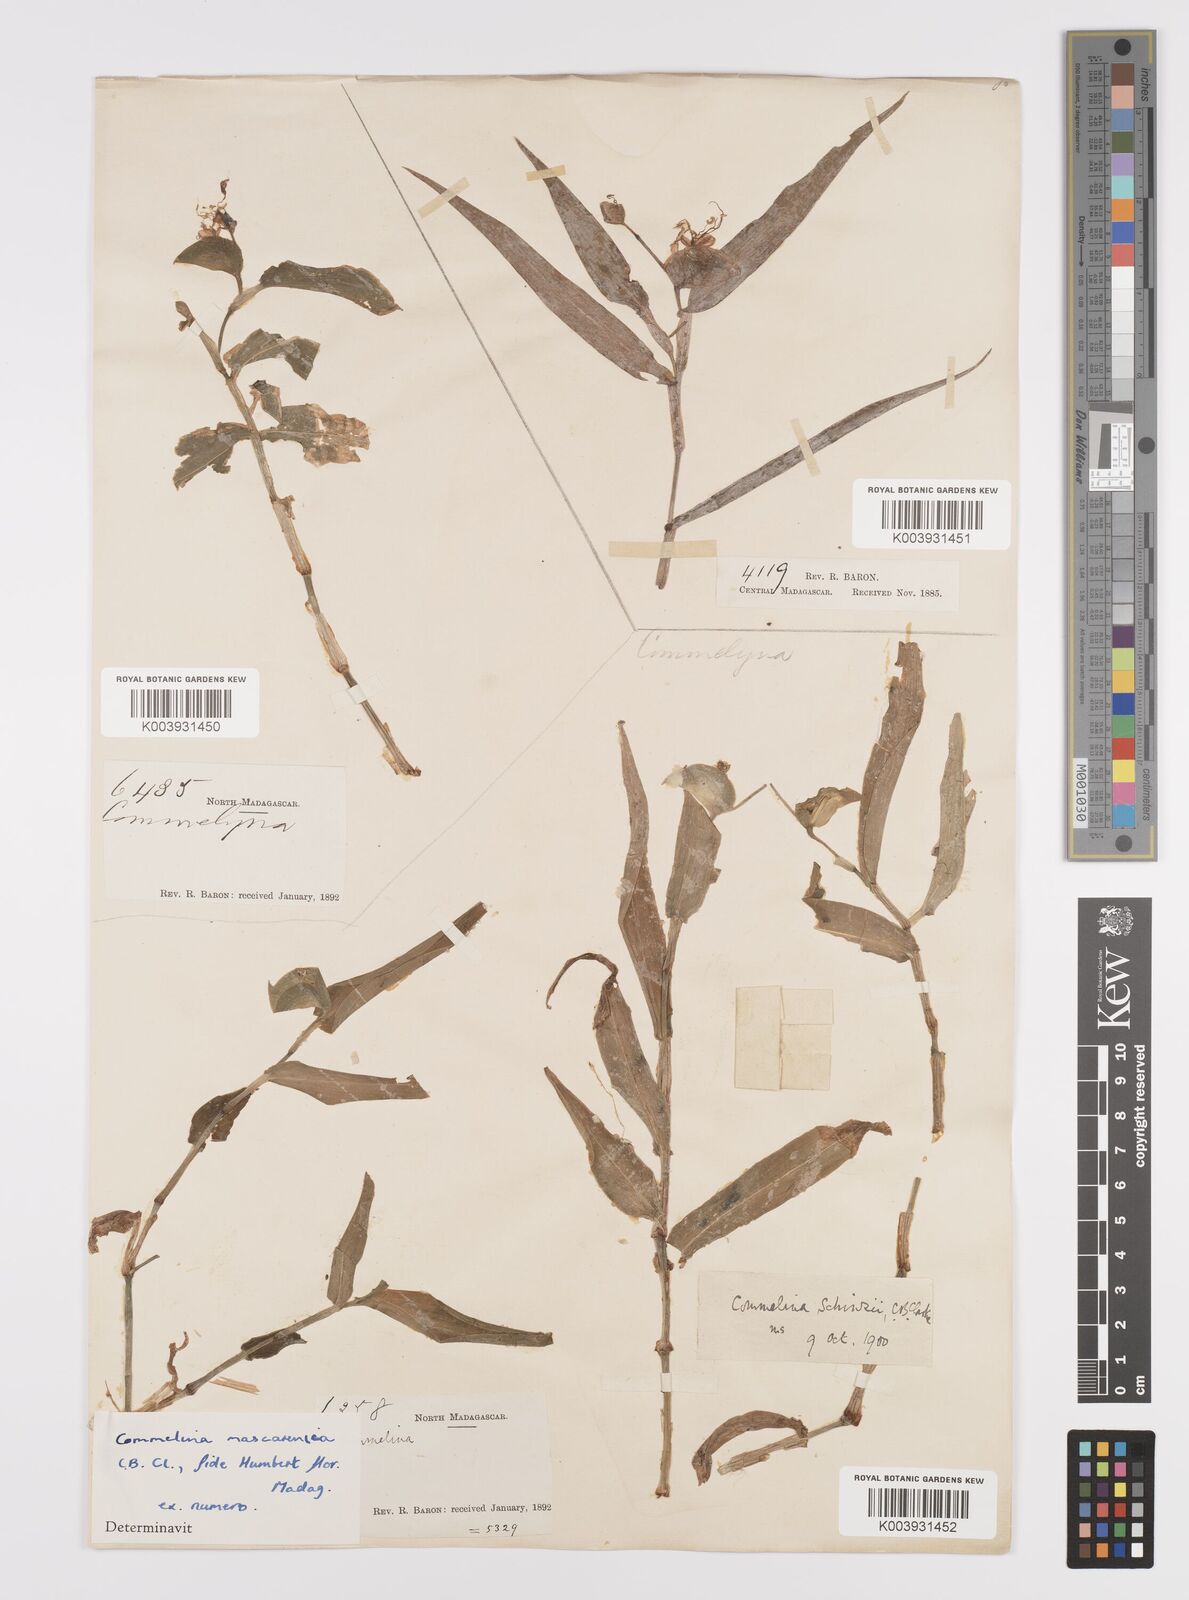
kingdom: Plantae
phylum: Tracheophyta
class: Liliopsida
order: Commelinales
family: Commelinaceae
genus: Commelina
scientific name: Commelina mascarenica
